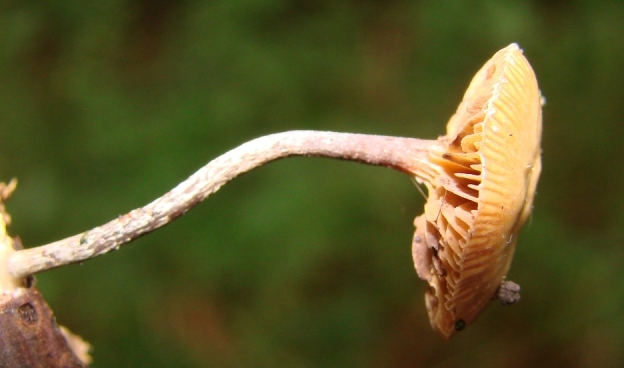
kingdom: Fungi
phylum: Basidiomycota
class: Agaricomycetes
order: Agaricales
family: Strophariaceae
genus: Deconica
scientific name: Deconica crobula
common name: træflis-stråhat
